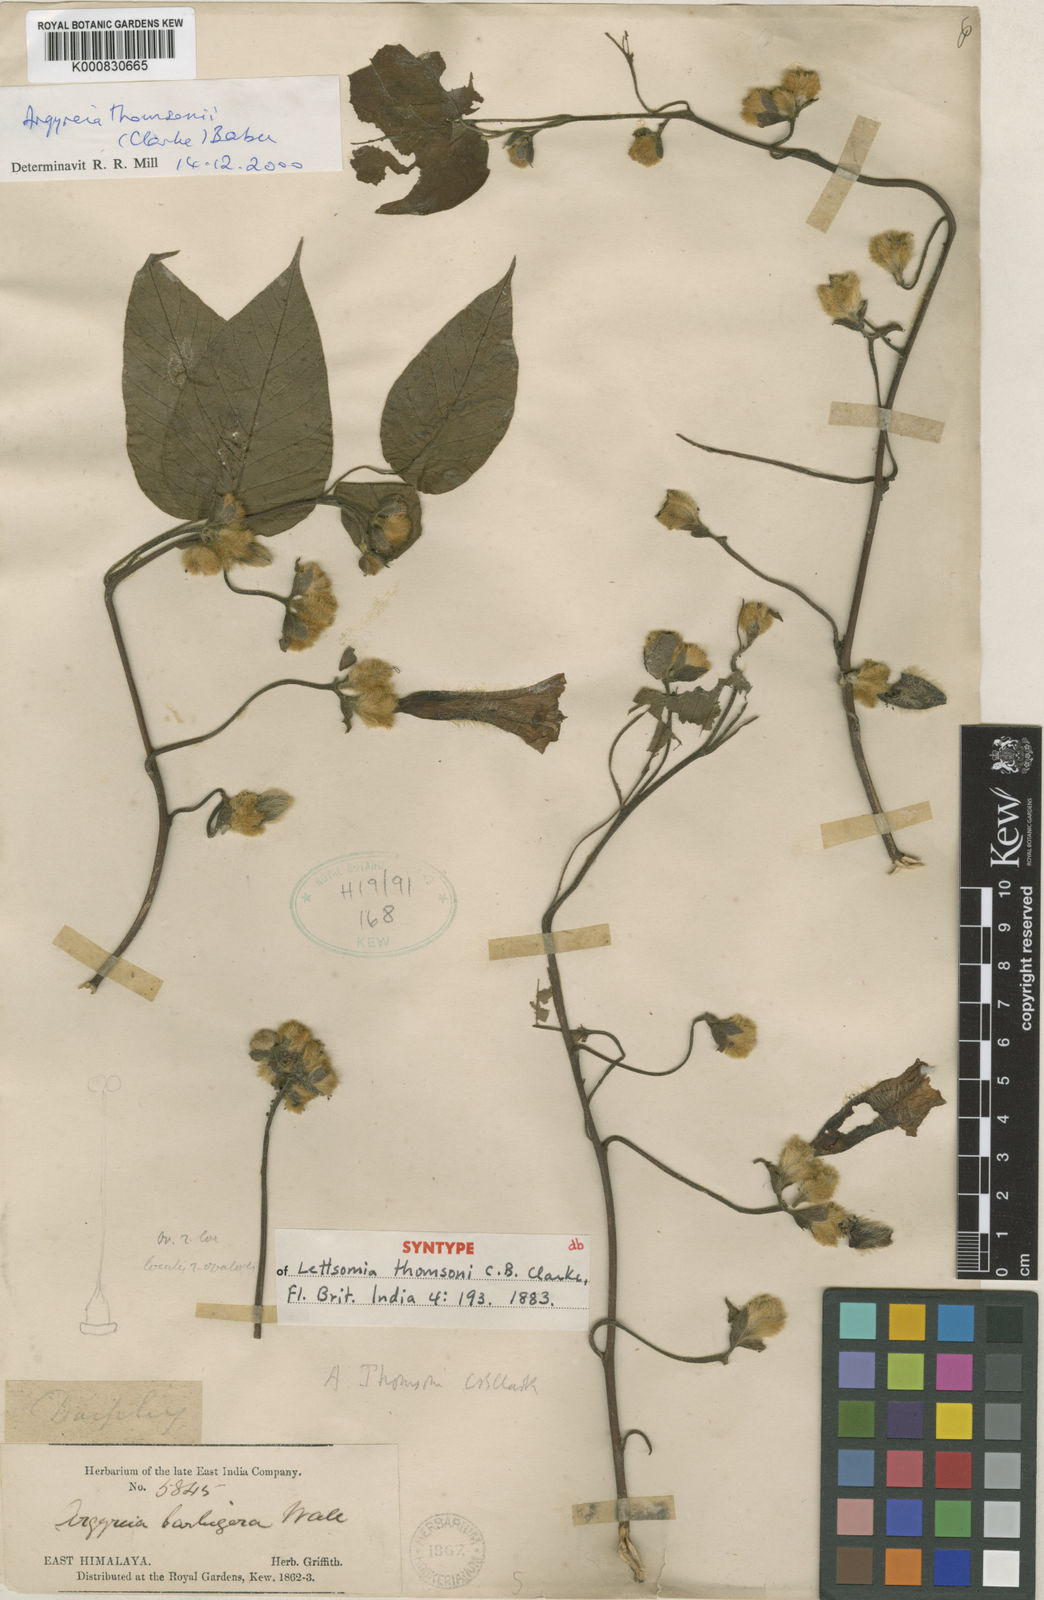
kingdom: Plantae
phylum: Tracheophyta
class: Magnoliopsida
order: Solanales
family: Convolvulaceae
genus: Argyreia
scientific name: Argyreia thomsonii
